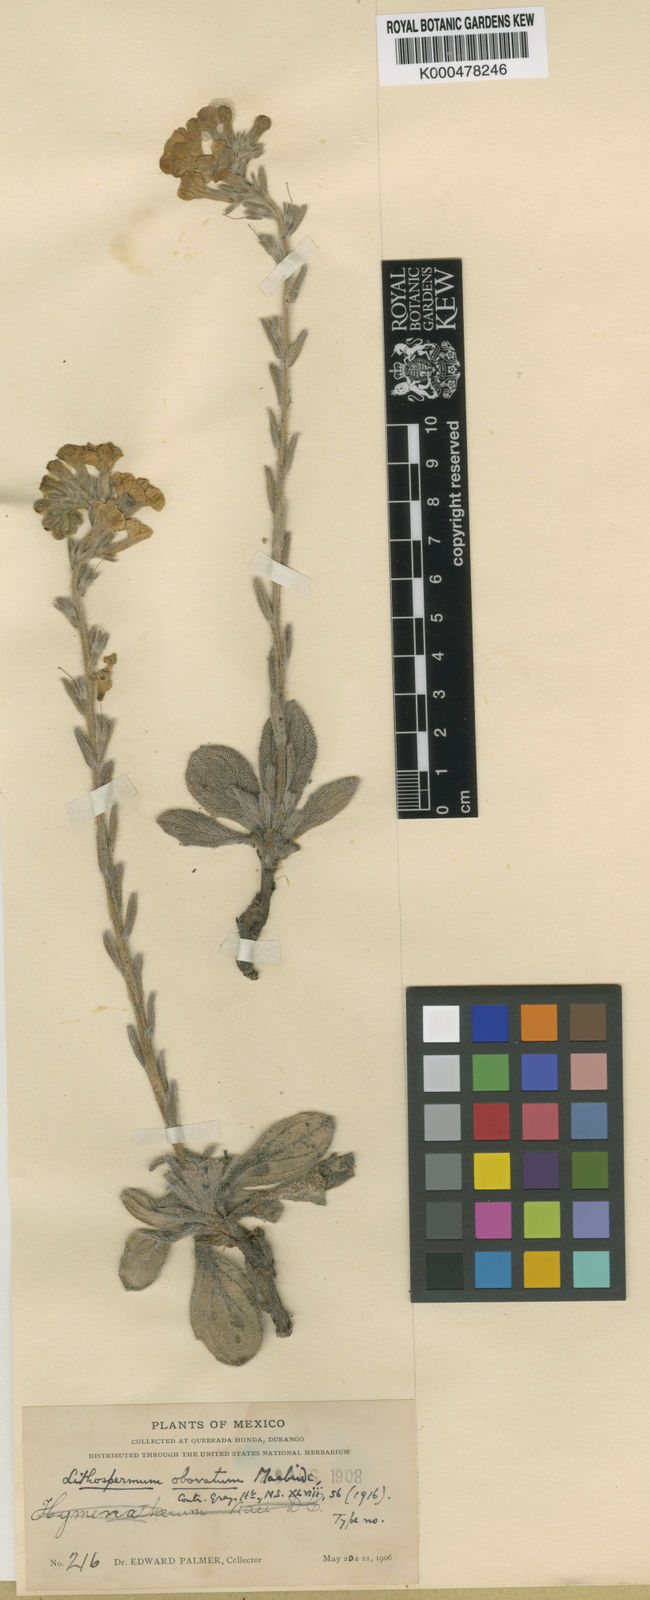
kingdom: Plantae
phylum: Tracheophyta
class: Magnoliopsida
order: Boraginales
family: Boraginaceae
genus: Lithospermum
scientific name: Lithospermum obovatum
